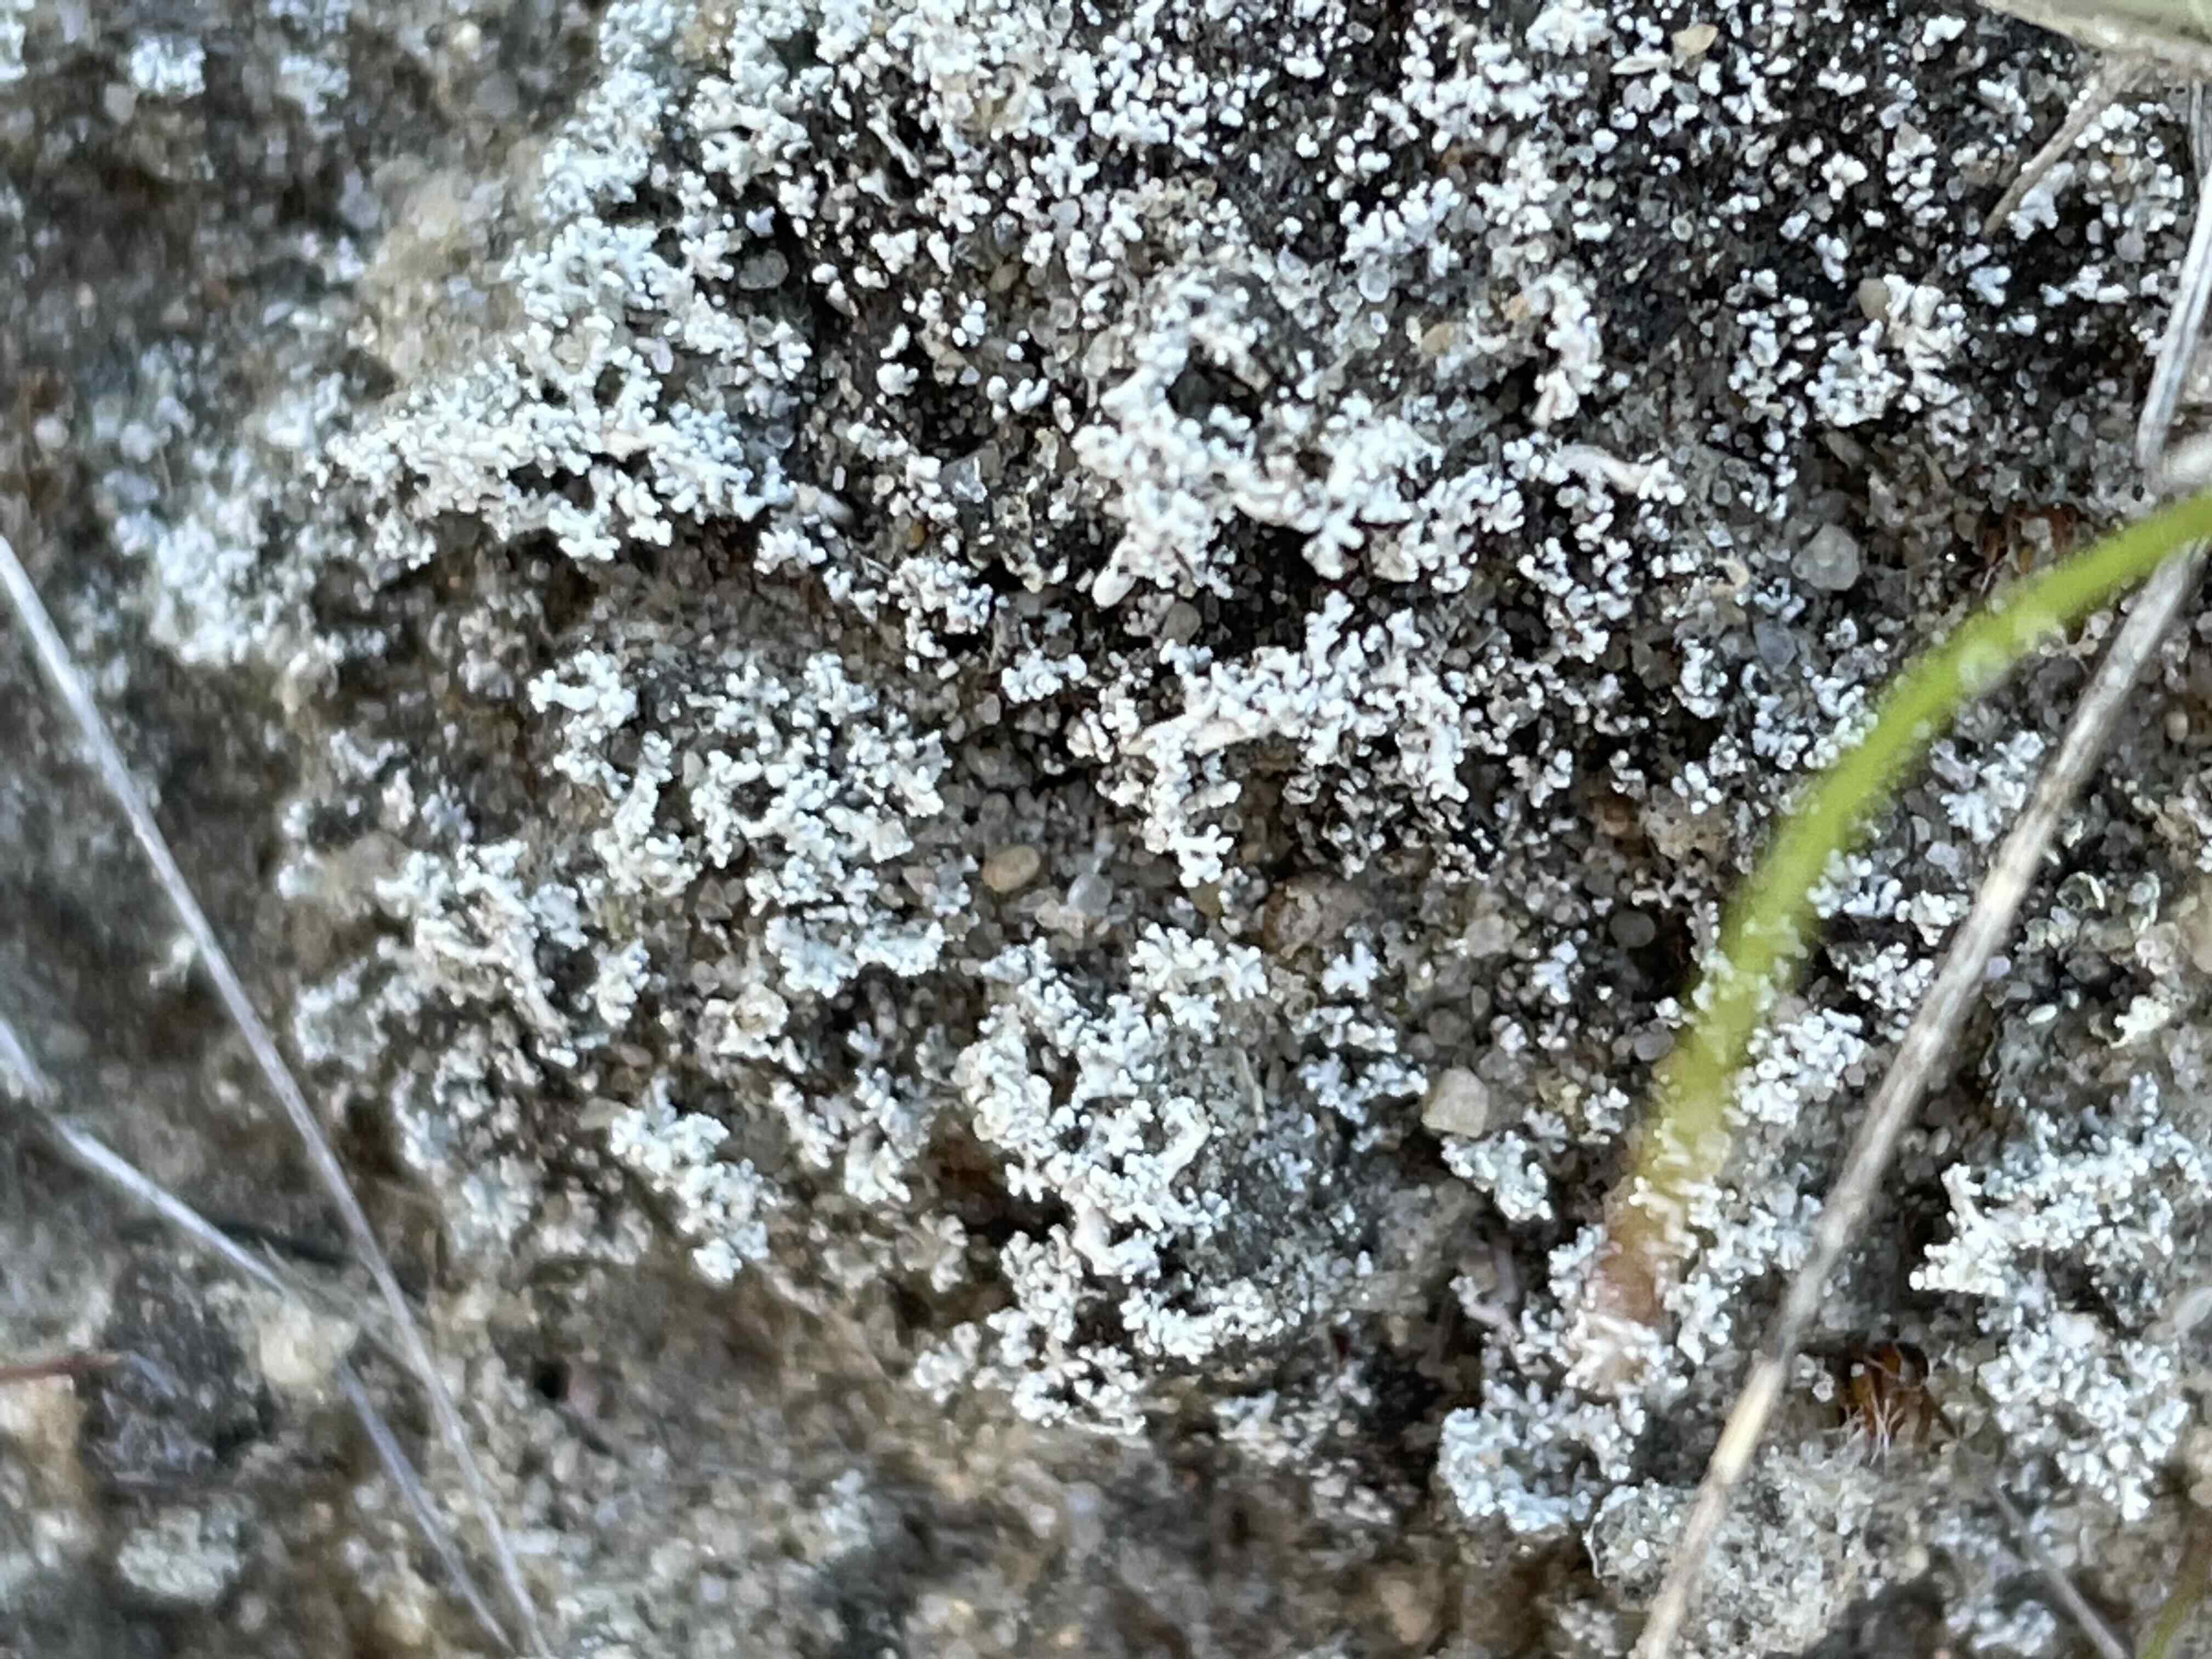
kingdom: Fungi
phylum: Ascomycota
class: Lecanoromycetes
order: Lecanorales
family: Stereocaulaceae
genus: Stereocaulon
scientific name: Stereocaulon condensatum
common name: lav korallav
